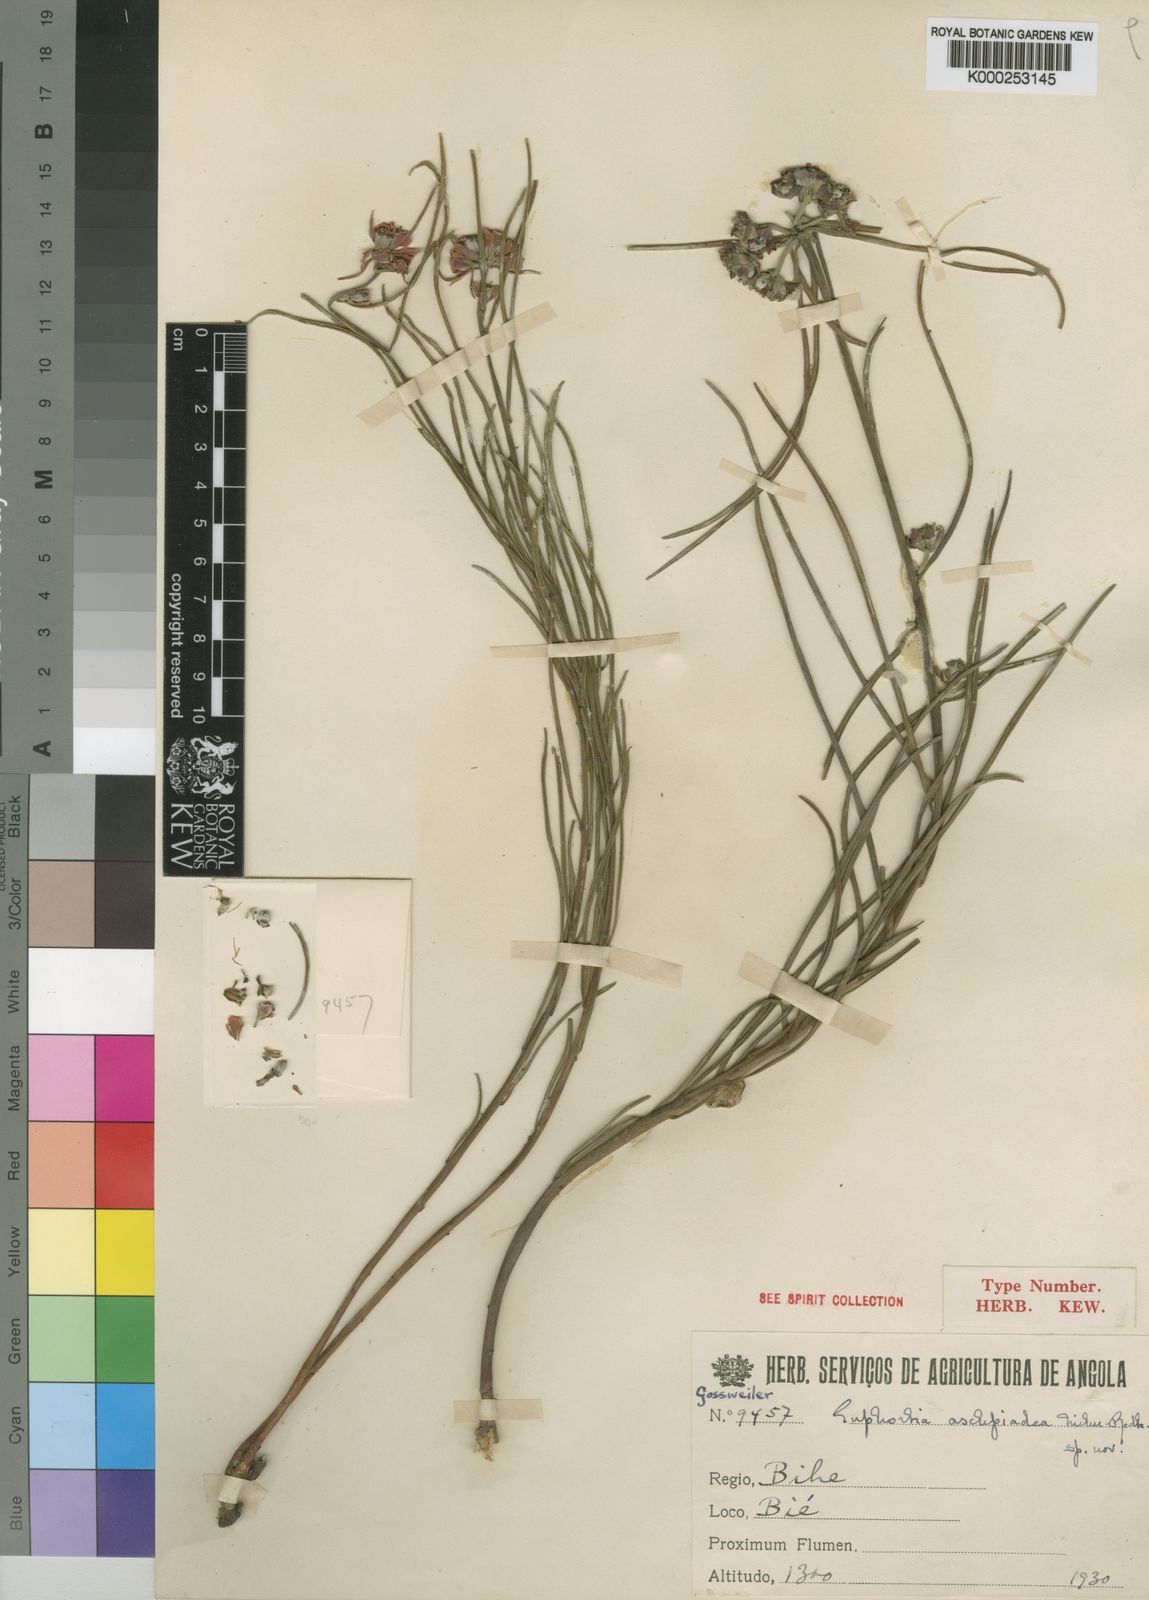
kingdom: Plantae
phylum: Tracheophyta
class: Magnoliopsida
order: Malpighiales
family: Euphorbiaceae
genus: Euphorbia
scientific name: Euphorbia asclepiadea
